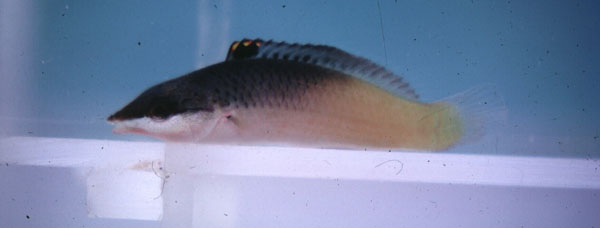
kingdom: Animalia
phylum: Chordata
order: Perciformes
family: Labridae
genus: Gomphosus
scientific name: Gomphosus varius
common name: Bird wrasse
